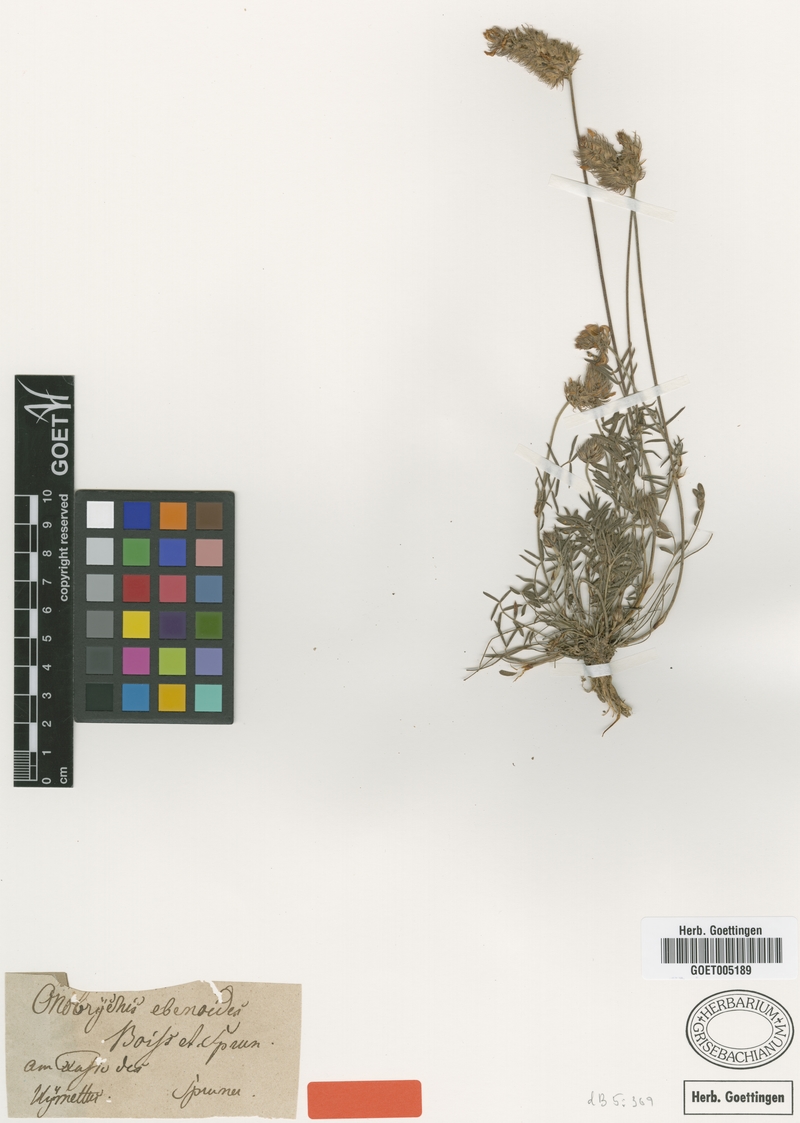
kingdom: Plantae
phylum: Tracheophyta
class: Magnoliopsida
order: Fabales
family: Fabaceae
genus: Onobrychis
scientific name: Onobrychis ebenoides
